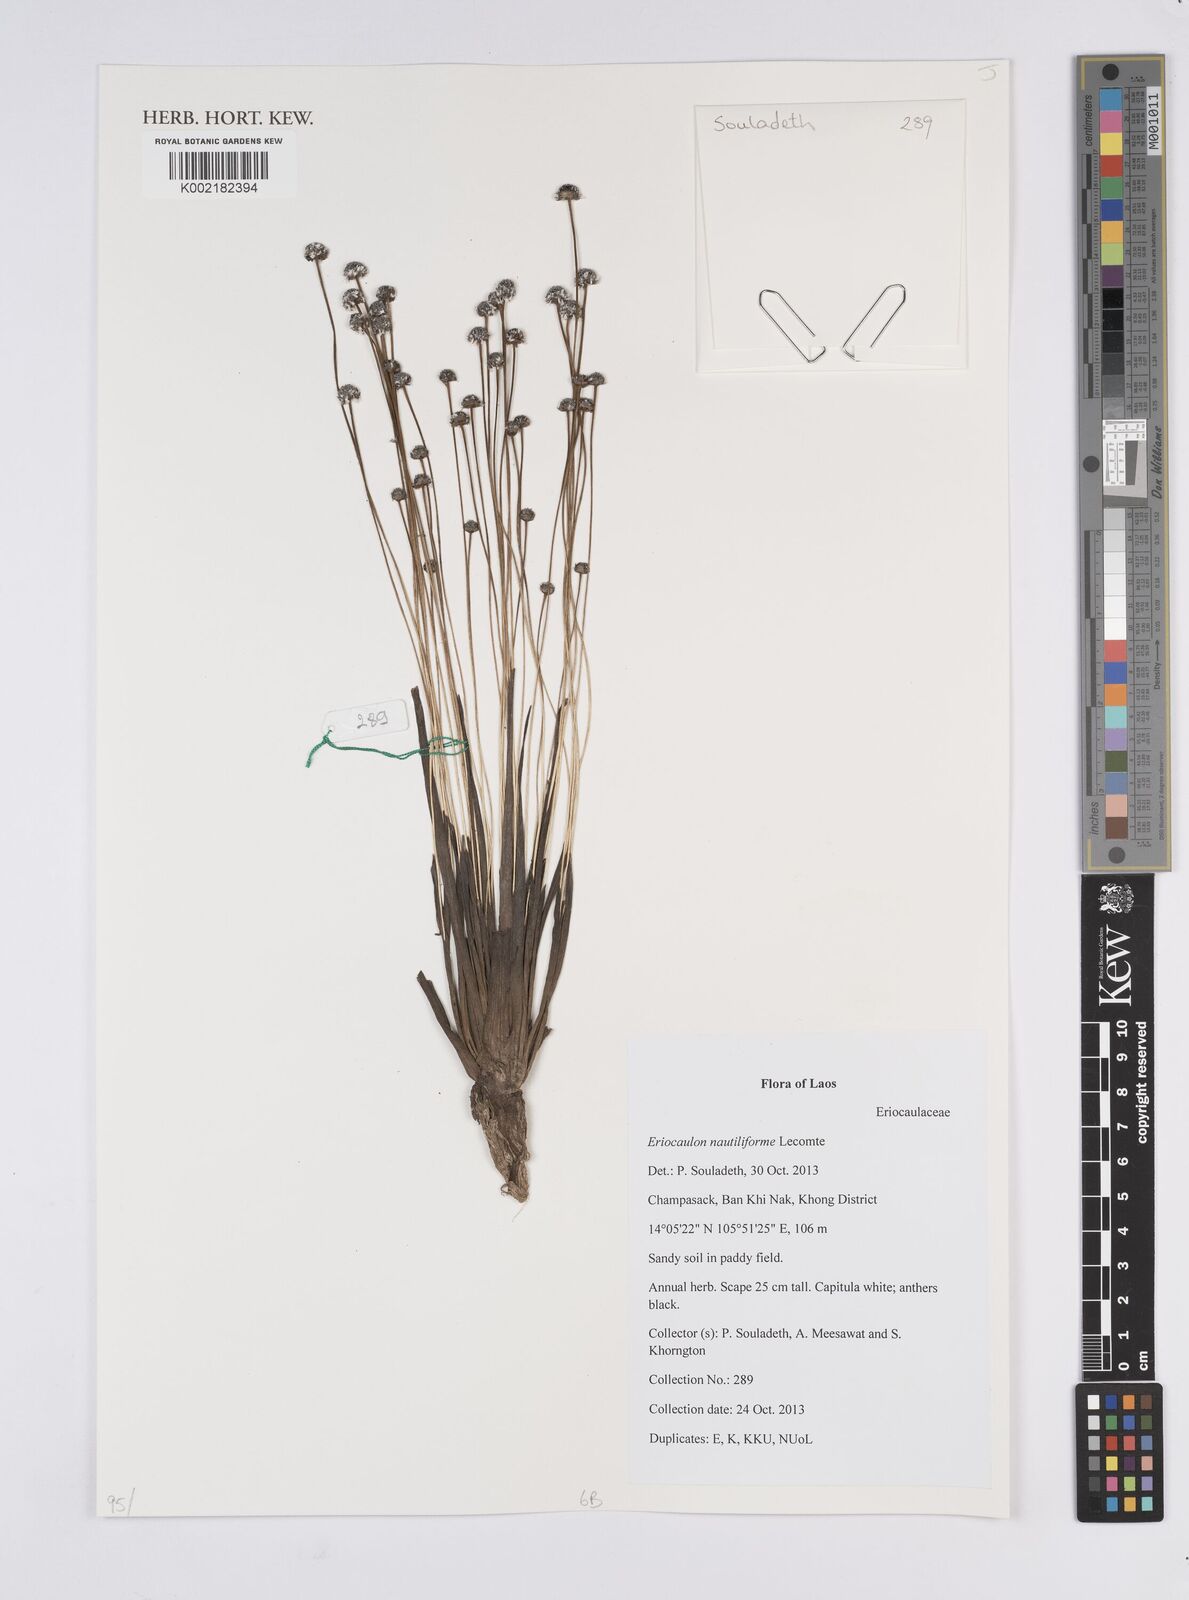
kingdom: Plantae
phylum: Tracheophyta
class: Liliopsida
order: Poales
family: Eriocaulaceae
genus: Eriocaulon
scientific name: Eriocaulon nautiliforme
